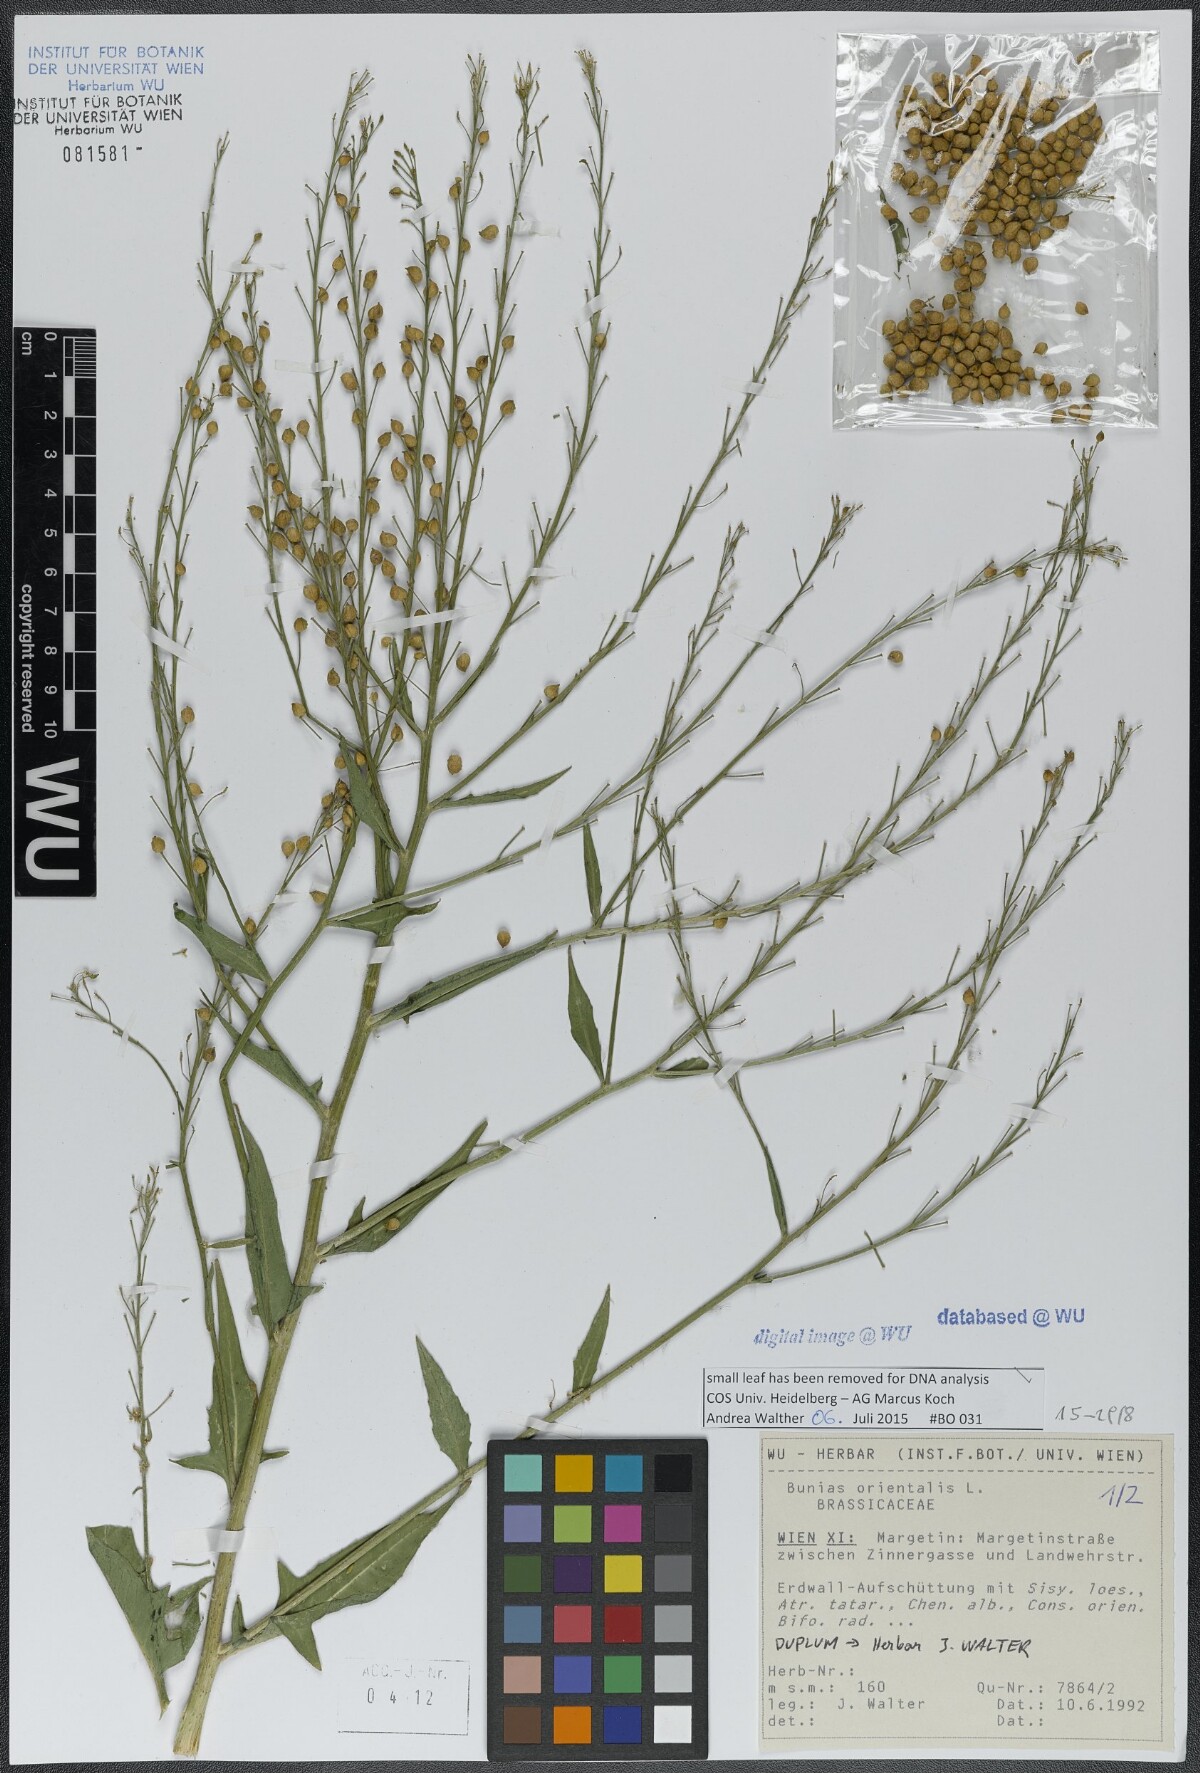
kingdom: Plantae
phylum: Tracheophyta
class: Magnoliopsida
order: Brassicales
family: Brassicaceae
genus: Bunias
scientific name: Bunias orientalis
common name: Warty-cabbage
